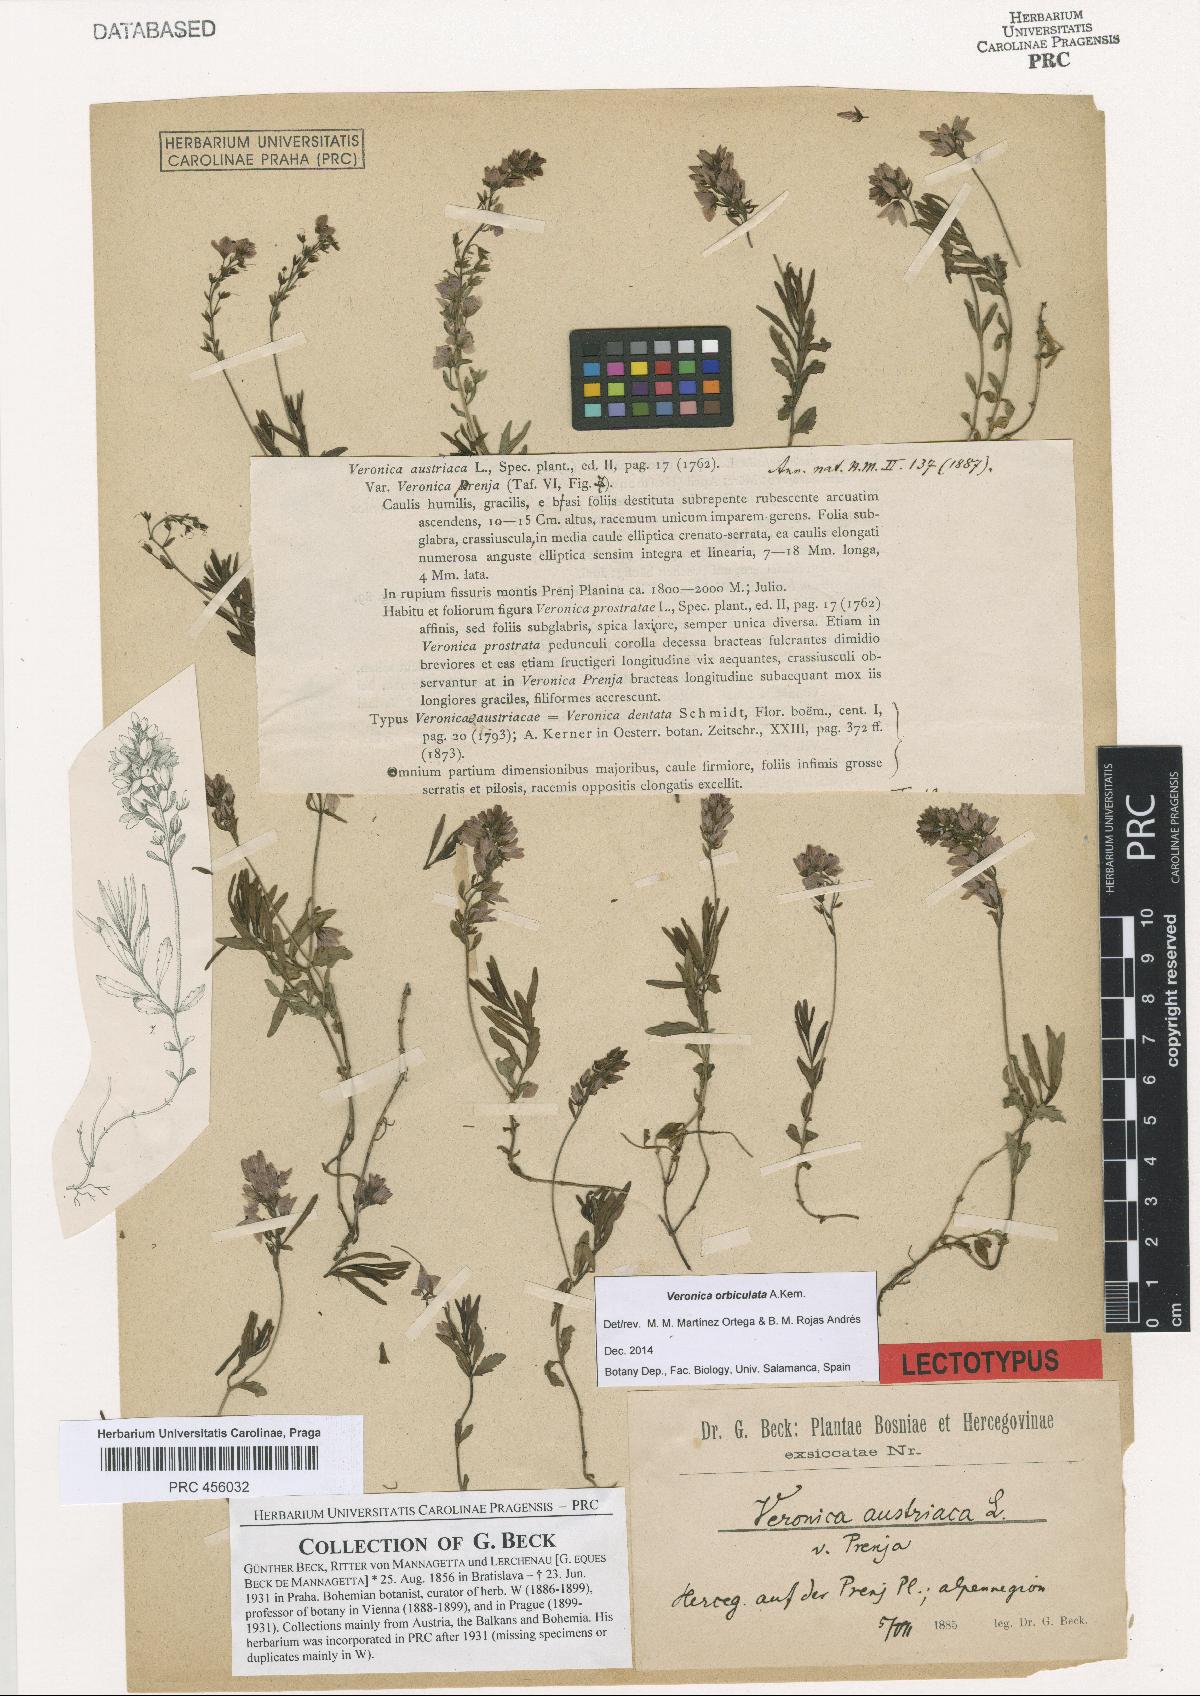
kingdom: Plantae
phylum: Tracheophyta
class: Magnoliopsida
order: Lamiales
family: Plantaginaceae
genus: Veronica
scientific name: Veronica orbiculata
